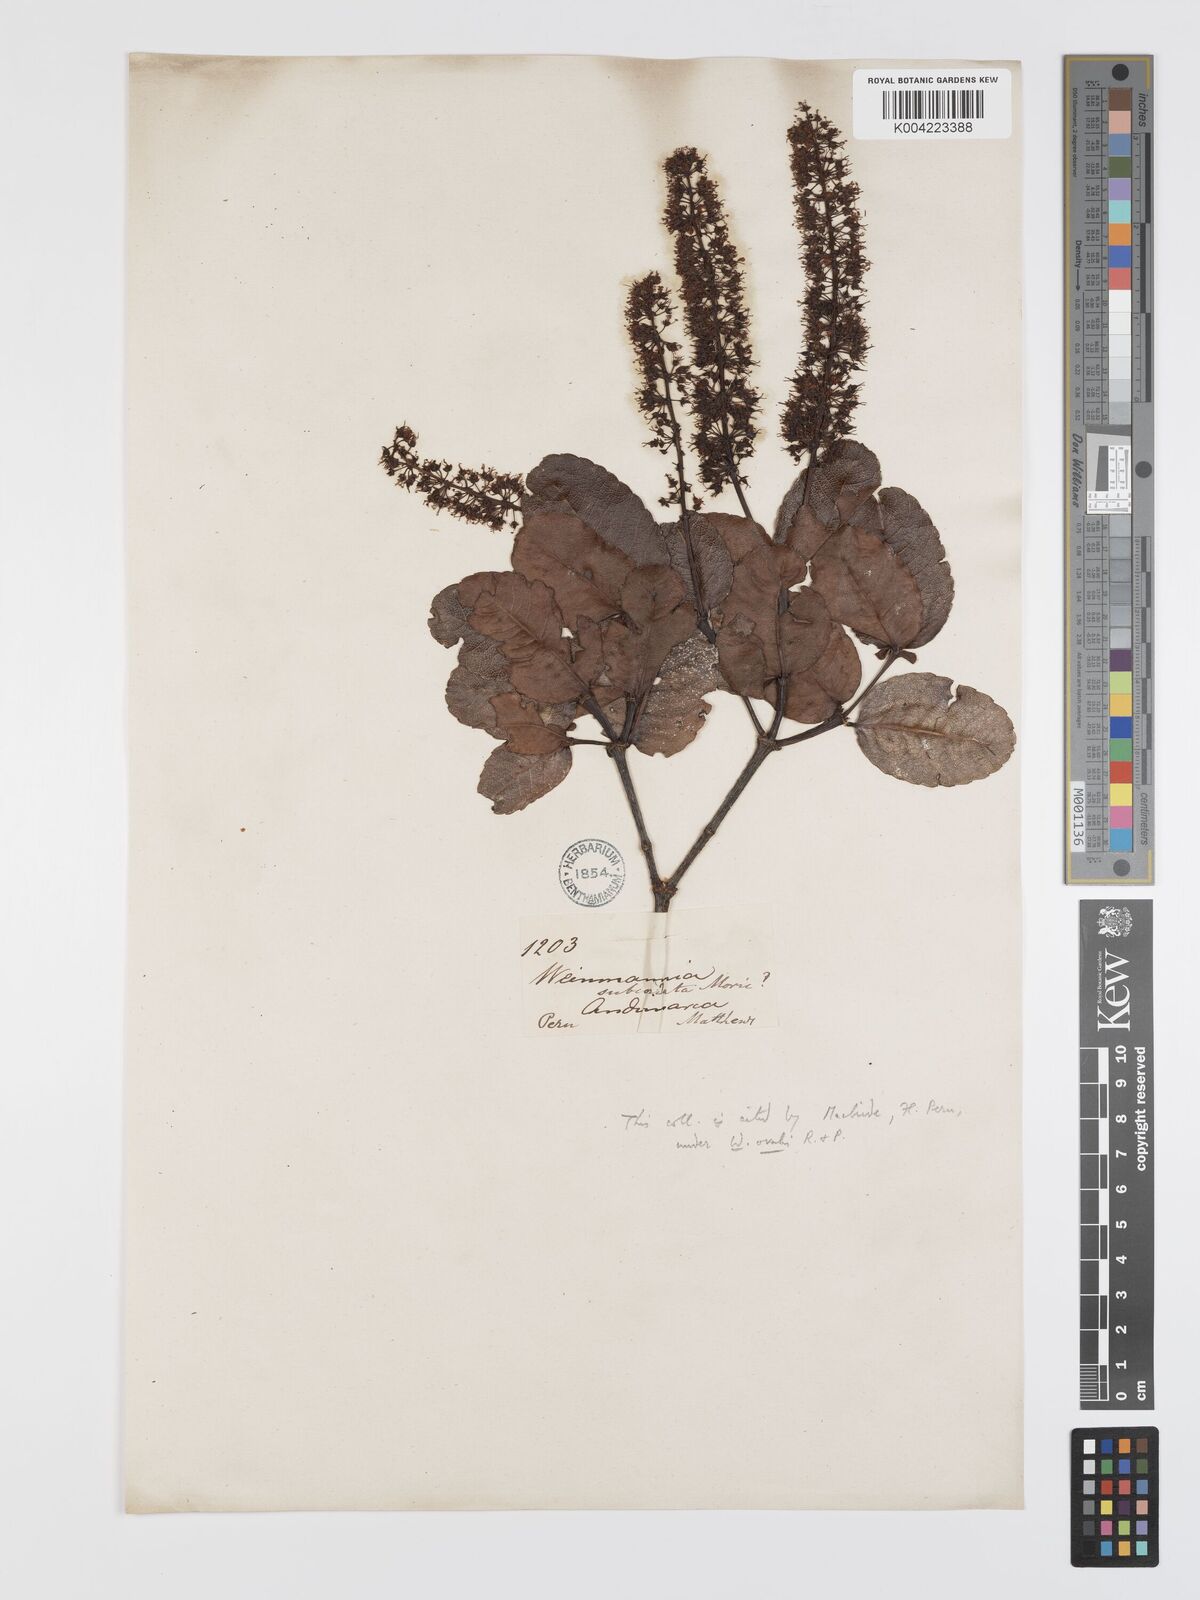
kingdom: Plantae
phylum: Tracheophyta
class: Magnoliopsida
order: Oxalidales
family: Cunoniaceae
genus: Weinmannia
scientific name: Weinmannia crassifolia
